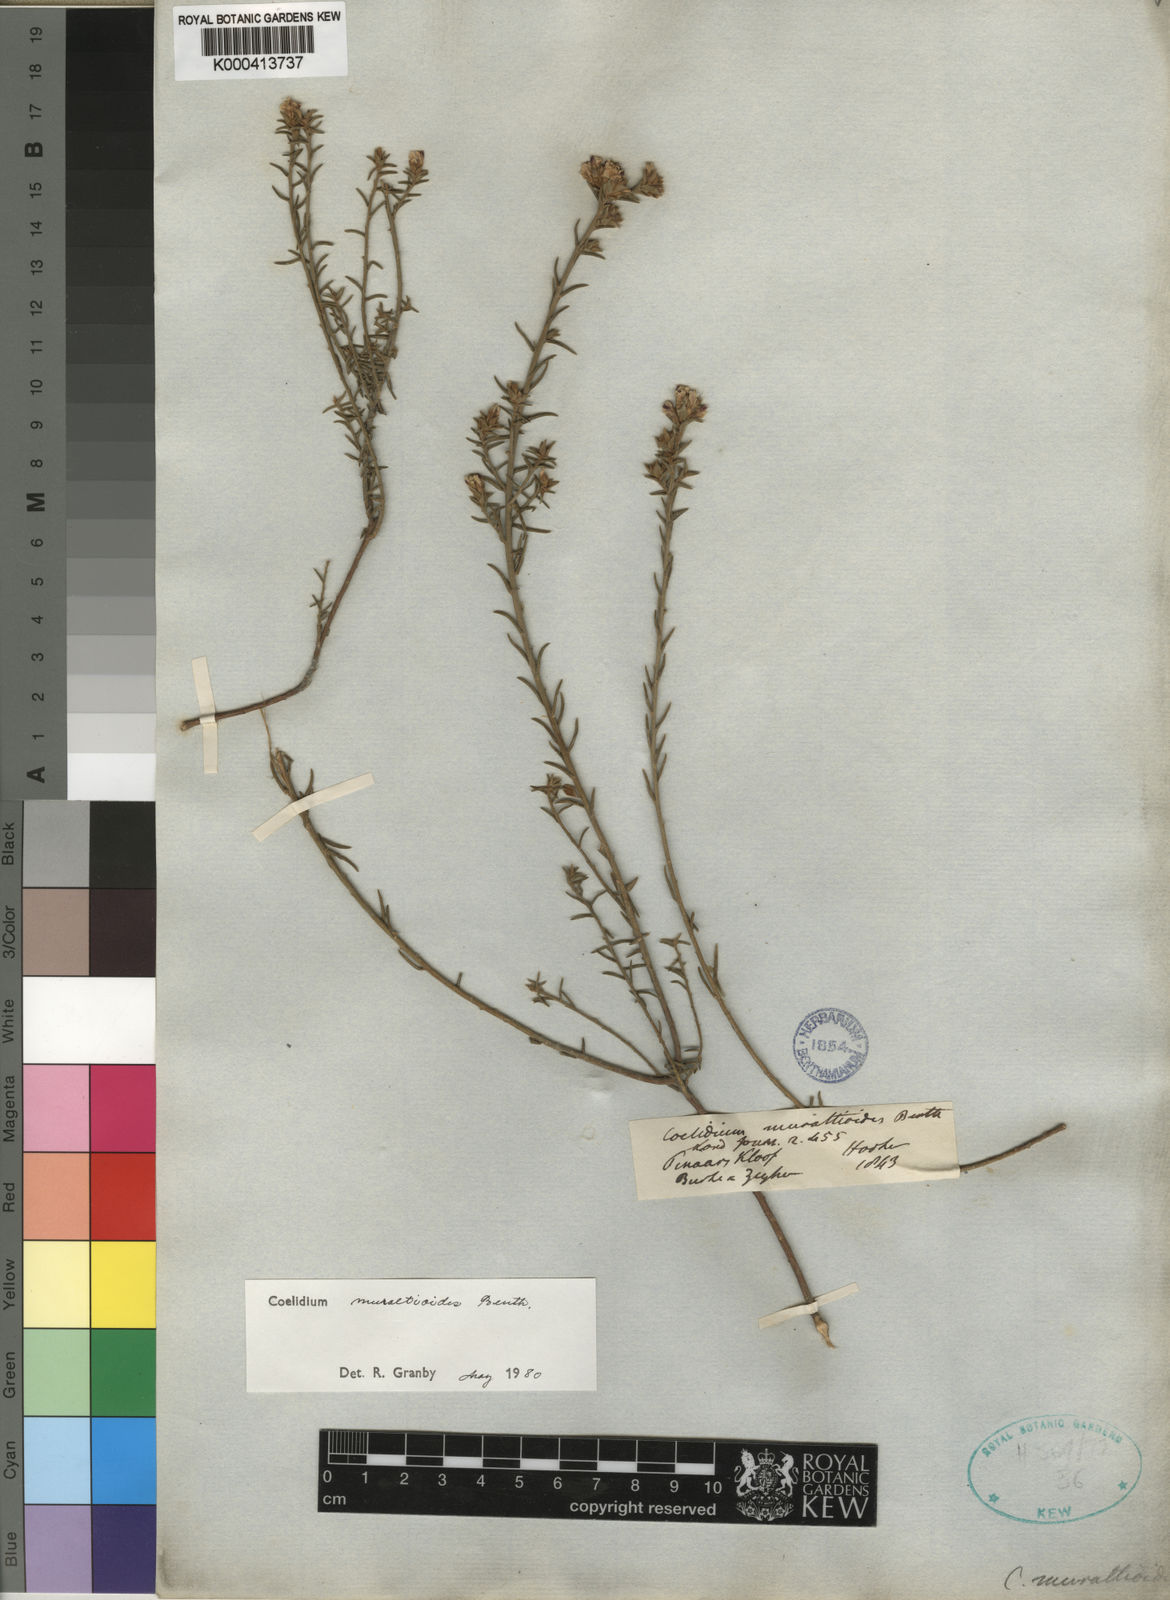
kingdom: Plantae
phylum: Tracheophyta
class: Magnoliopsida
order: Fabales
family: Fabaceae
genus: Amphithalea
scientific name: Amphithalea muraltioides
